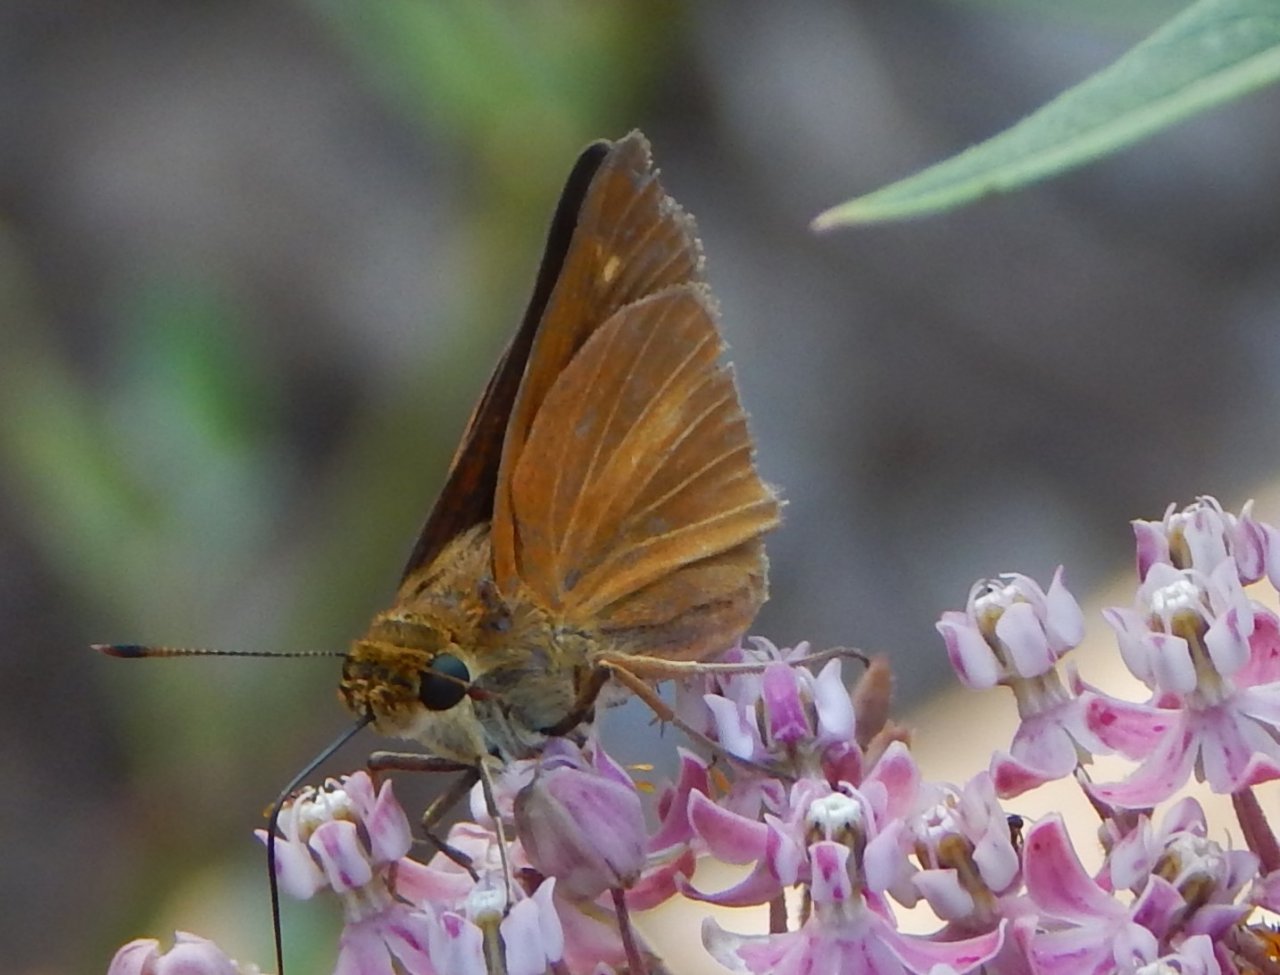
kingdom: Animalia
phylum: Arthropoda
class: Insecta
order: Lepidoptera
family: Hesperiidae
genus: Euphyes
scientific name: Euphyes dion
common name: Dion Skipper
